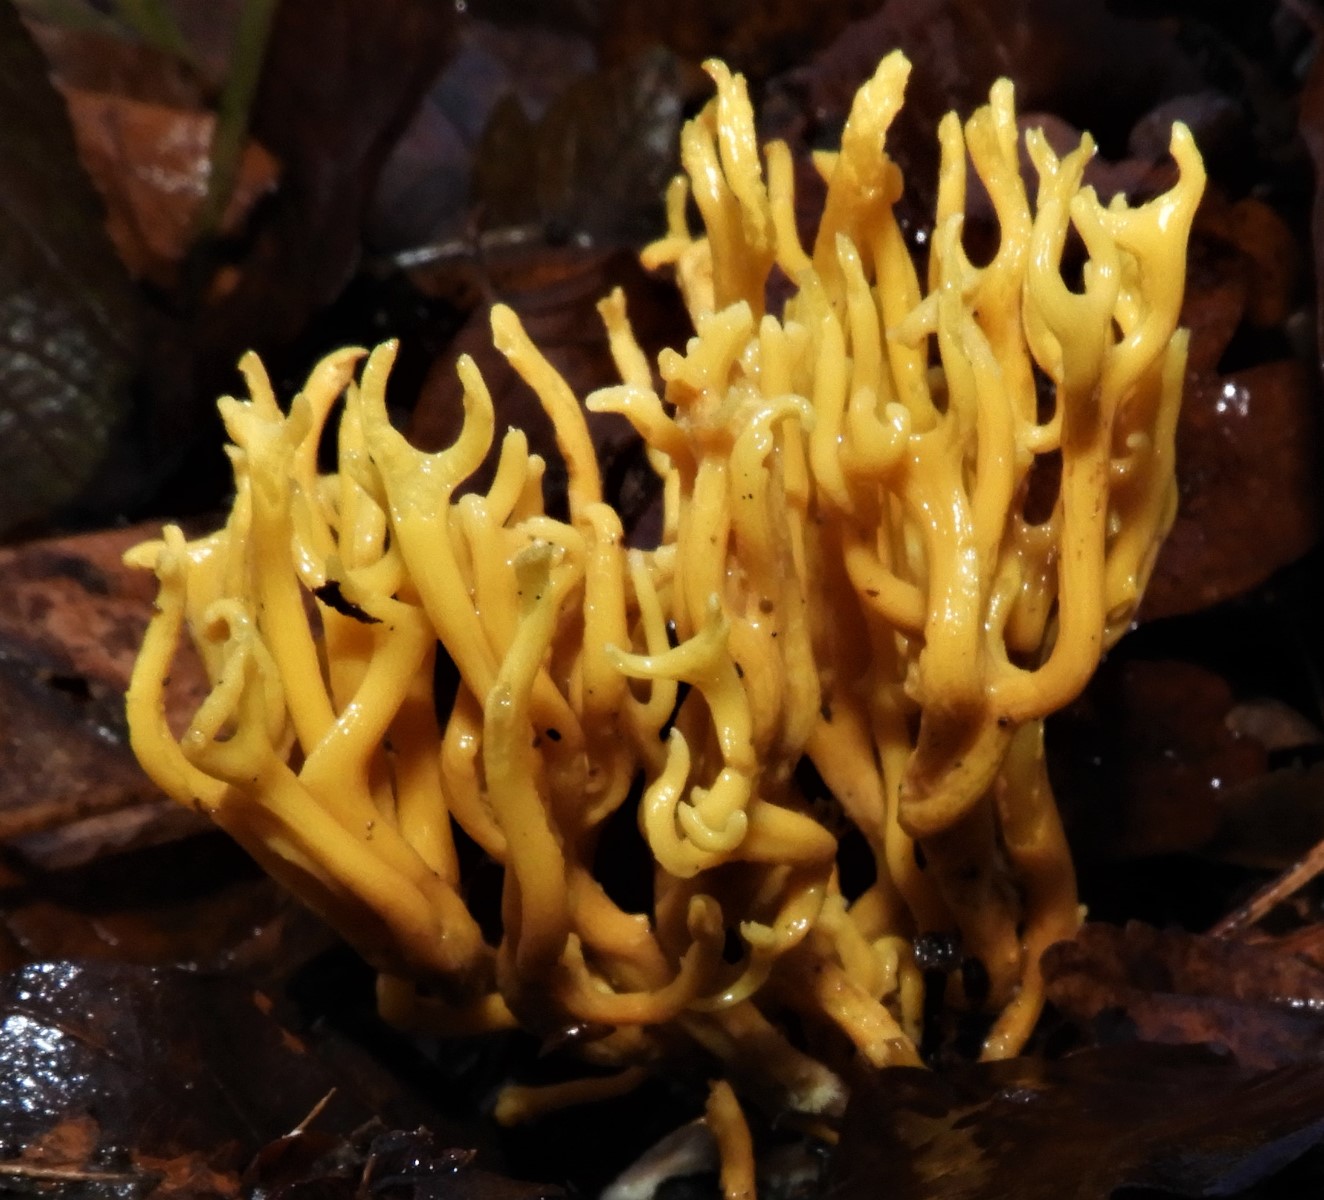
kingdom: Fungi
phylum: Basidiomycota
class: Agaricomycetes
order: Agaricales
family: Clavariaceae
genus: Clavulinopsis
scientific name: Clavulinopsis corniculata
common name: eng-køllesvamp
